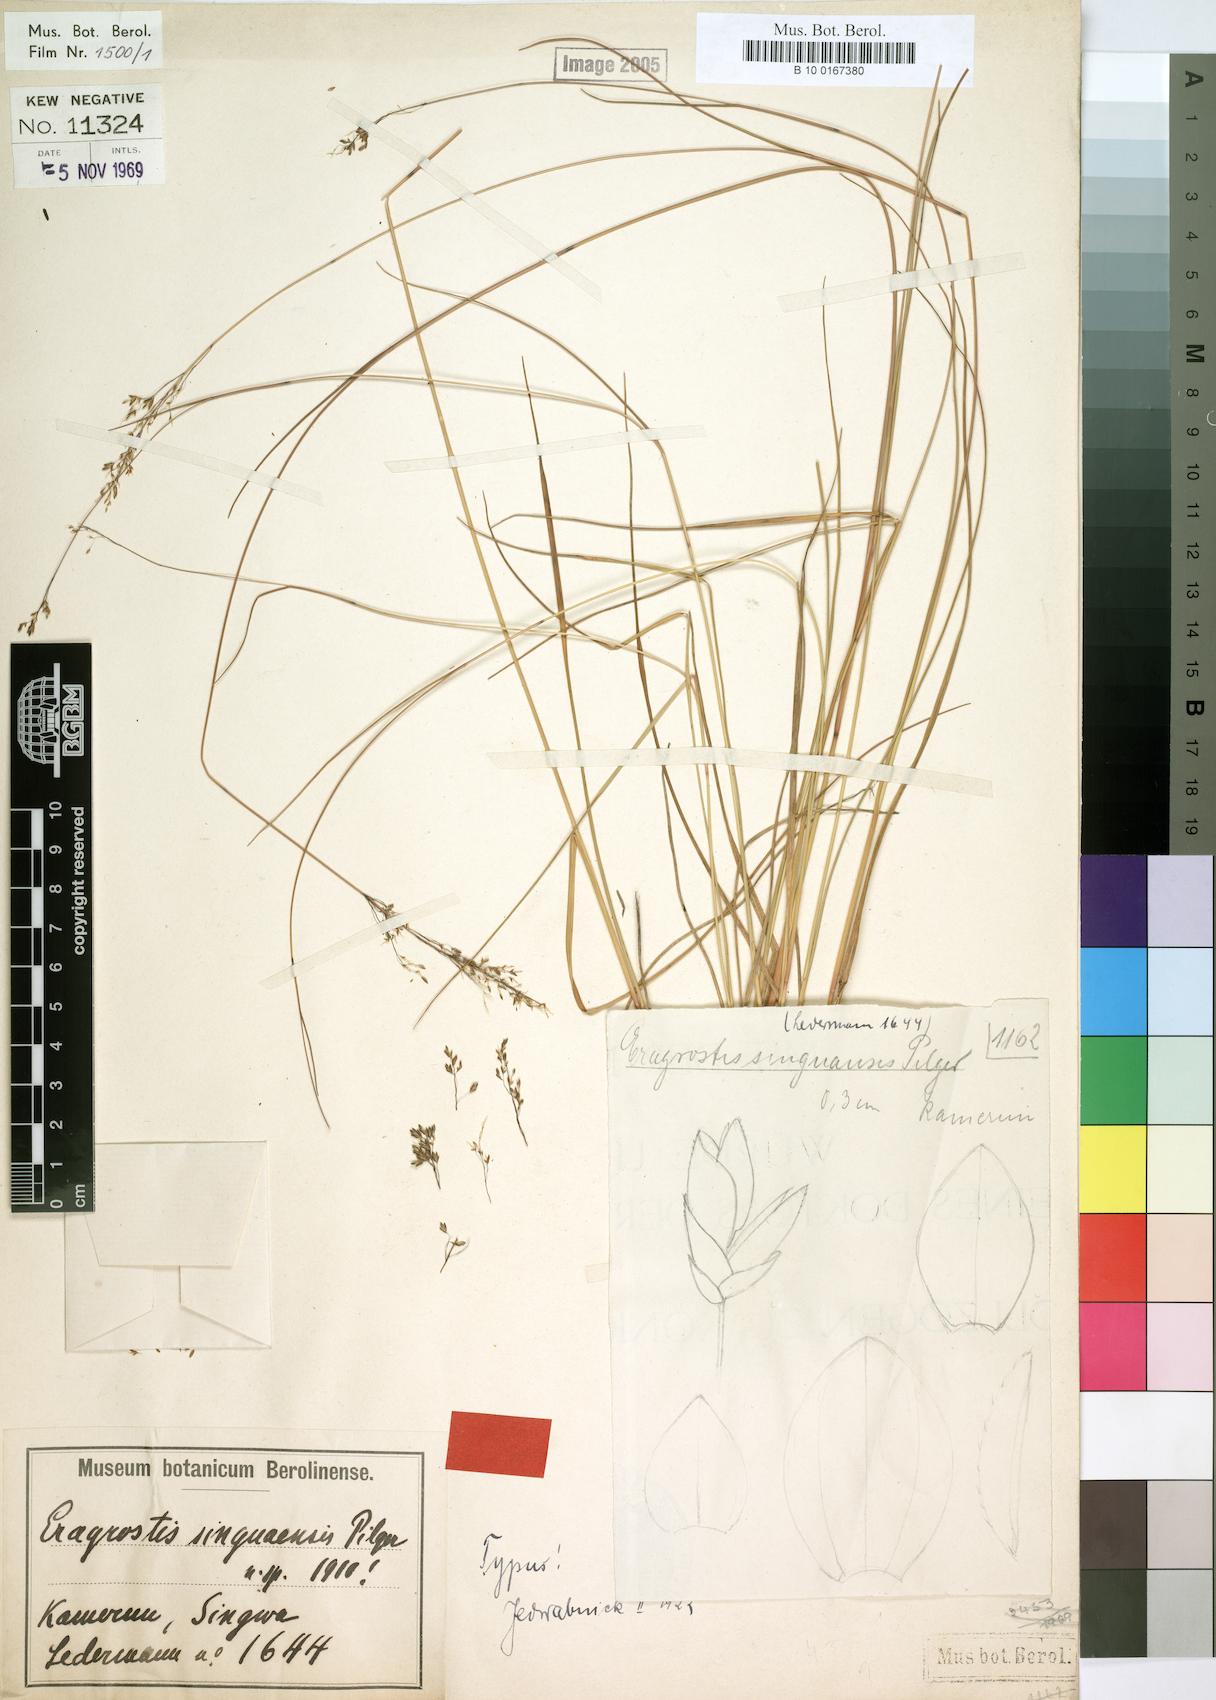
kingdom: Plantae
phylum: Tracheophyta
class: Liliopsida
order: Poales
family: Poaceae
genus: Eragrostis
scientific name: Eragrostis singuaensis
